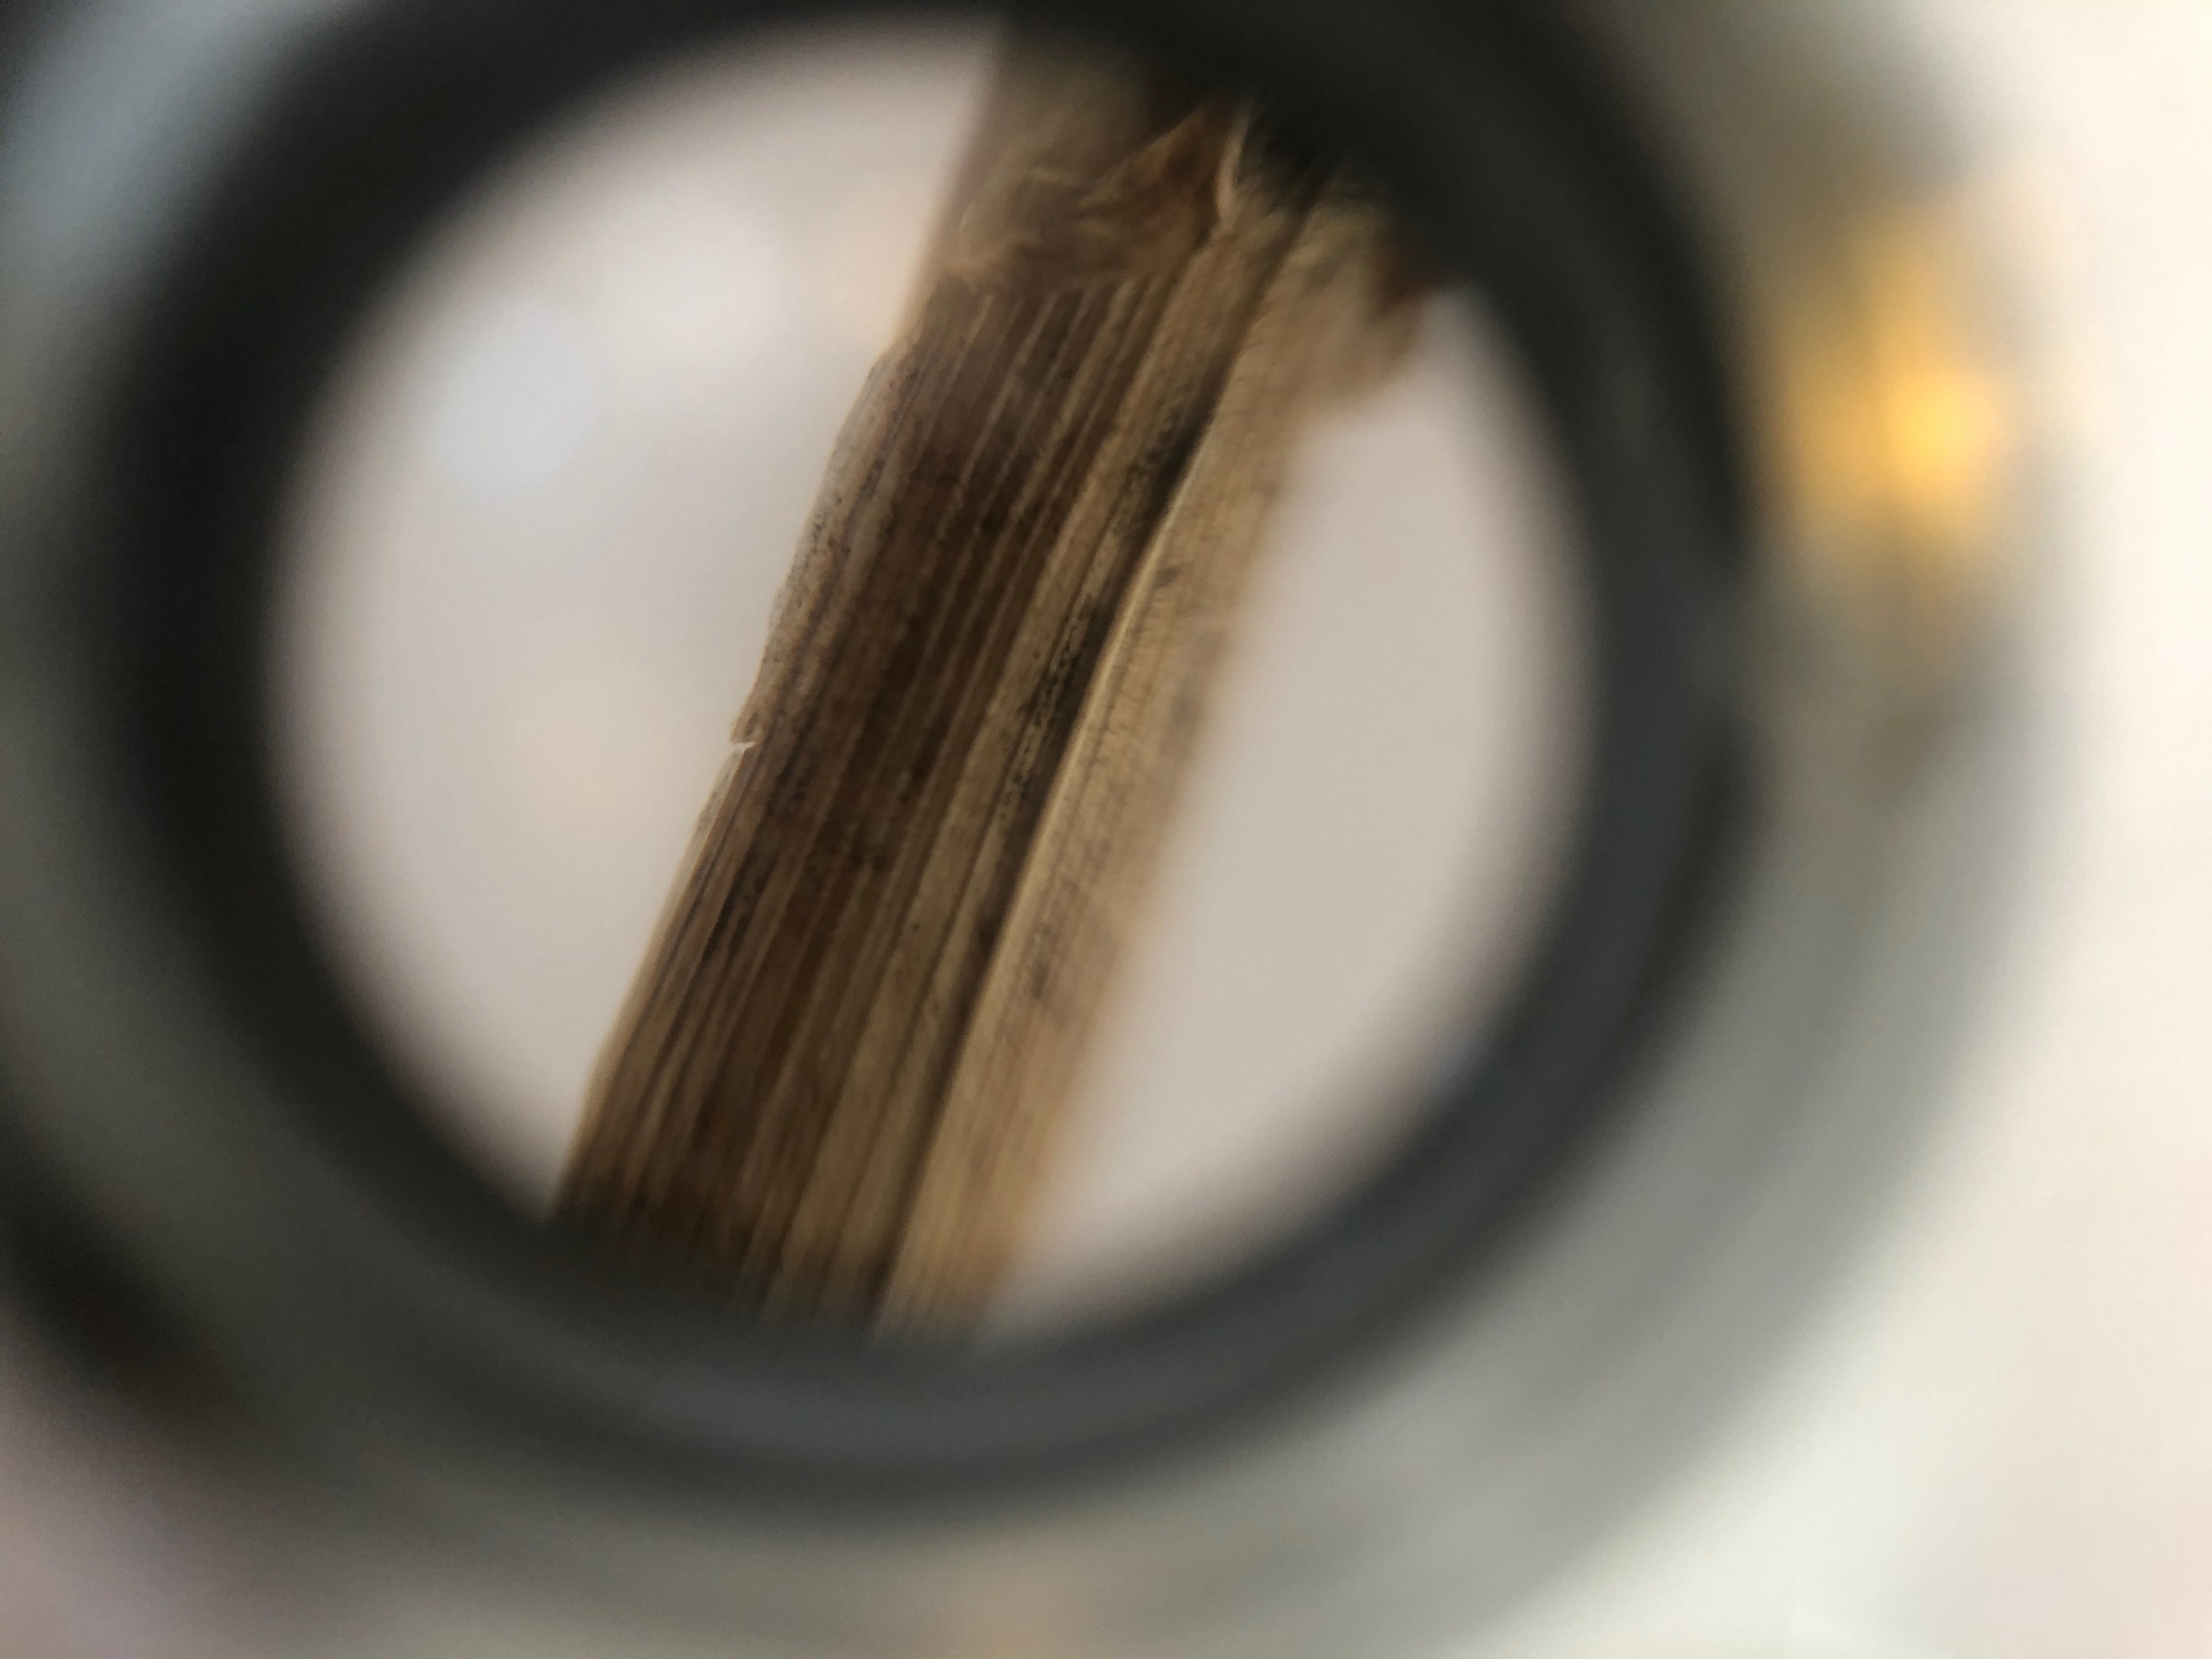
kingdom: Plantae
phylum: Tracheophyta
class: Liliopsida
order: Poales
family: Poaceae
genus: Dactylis
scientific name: Dactylis glomerata
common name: Almindelig hundegræs
